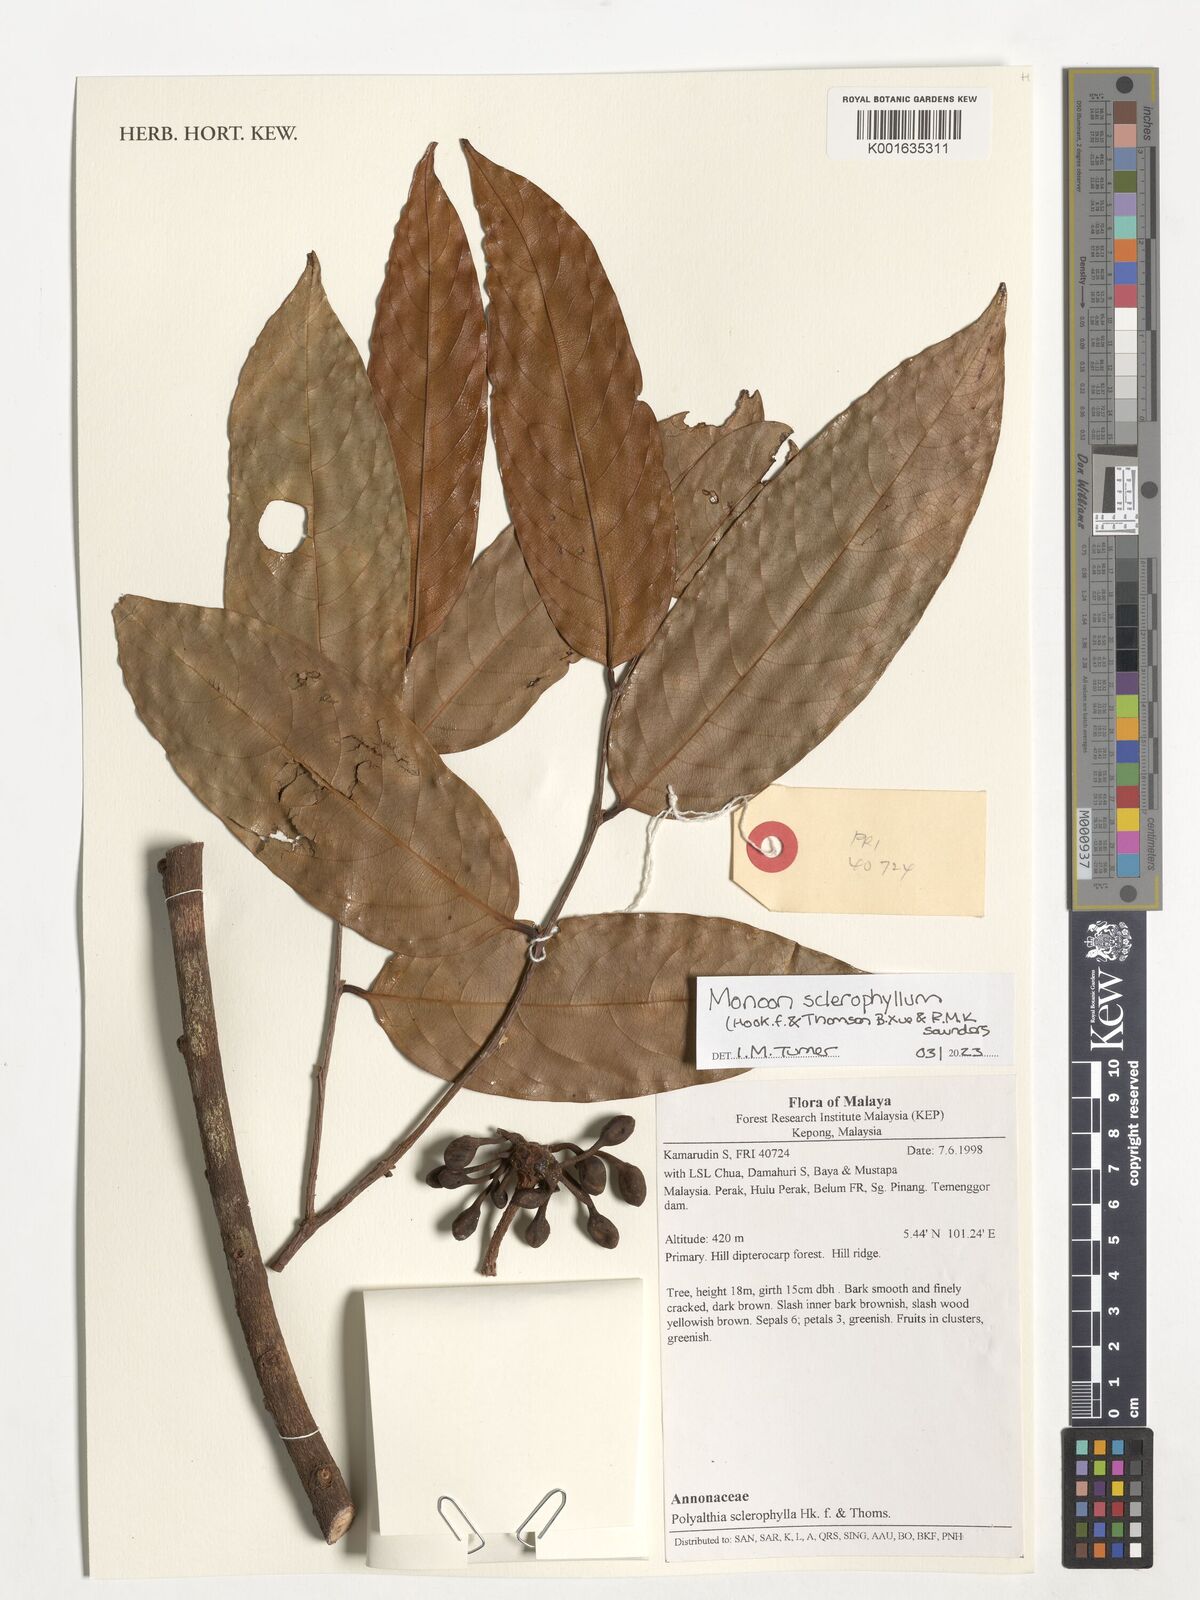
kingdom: Plantae
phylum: Tracheophyta
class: Magnoliopsida
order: Magnoliales
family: Annonaceae
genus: Polyalthia
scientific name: Polyalthia sclerophylla
